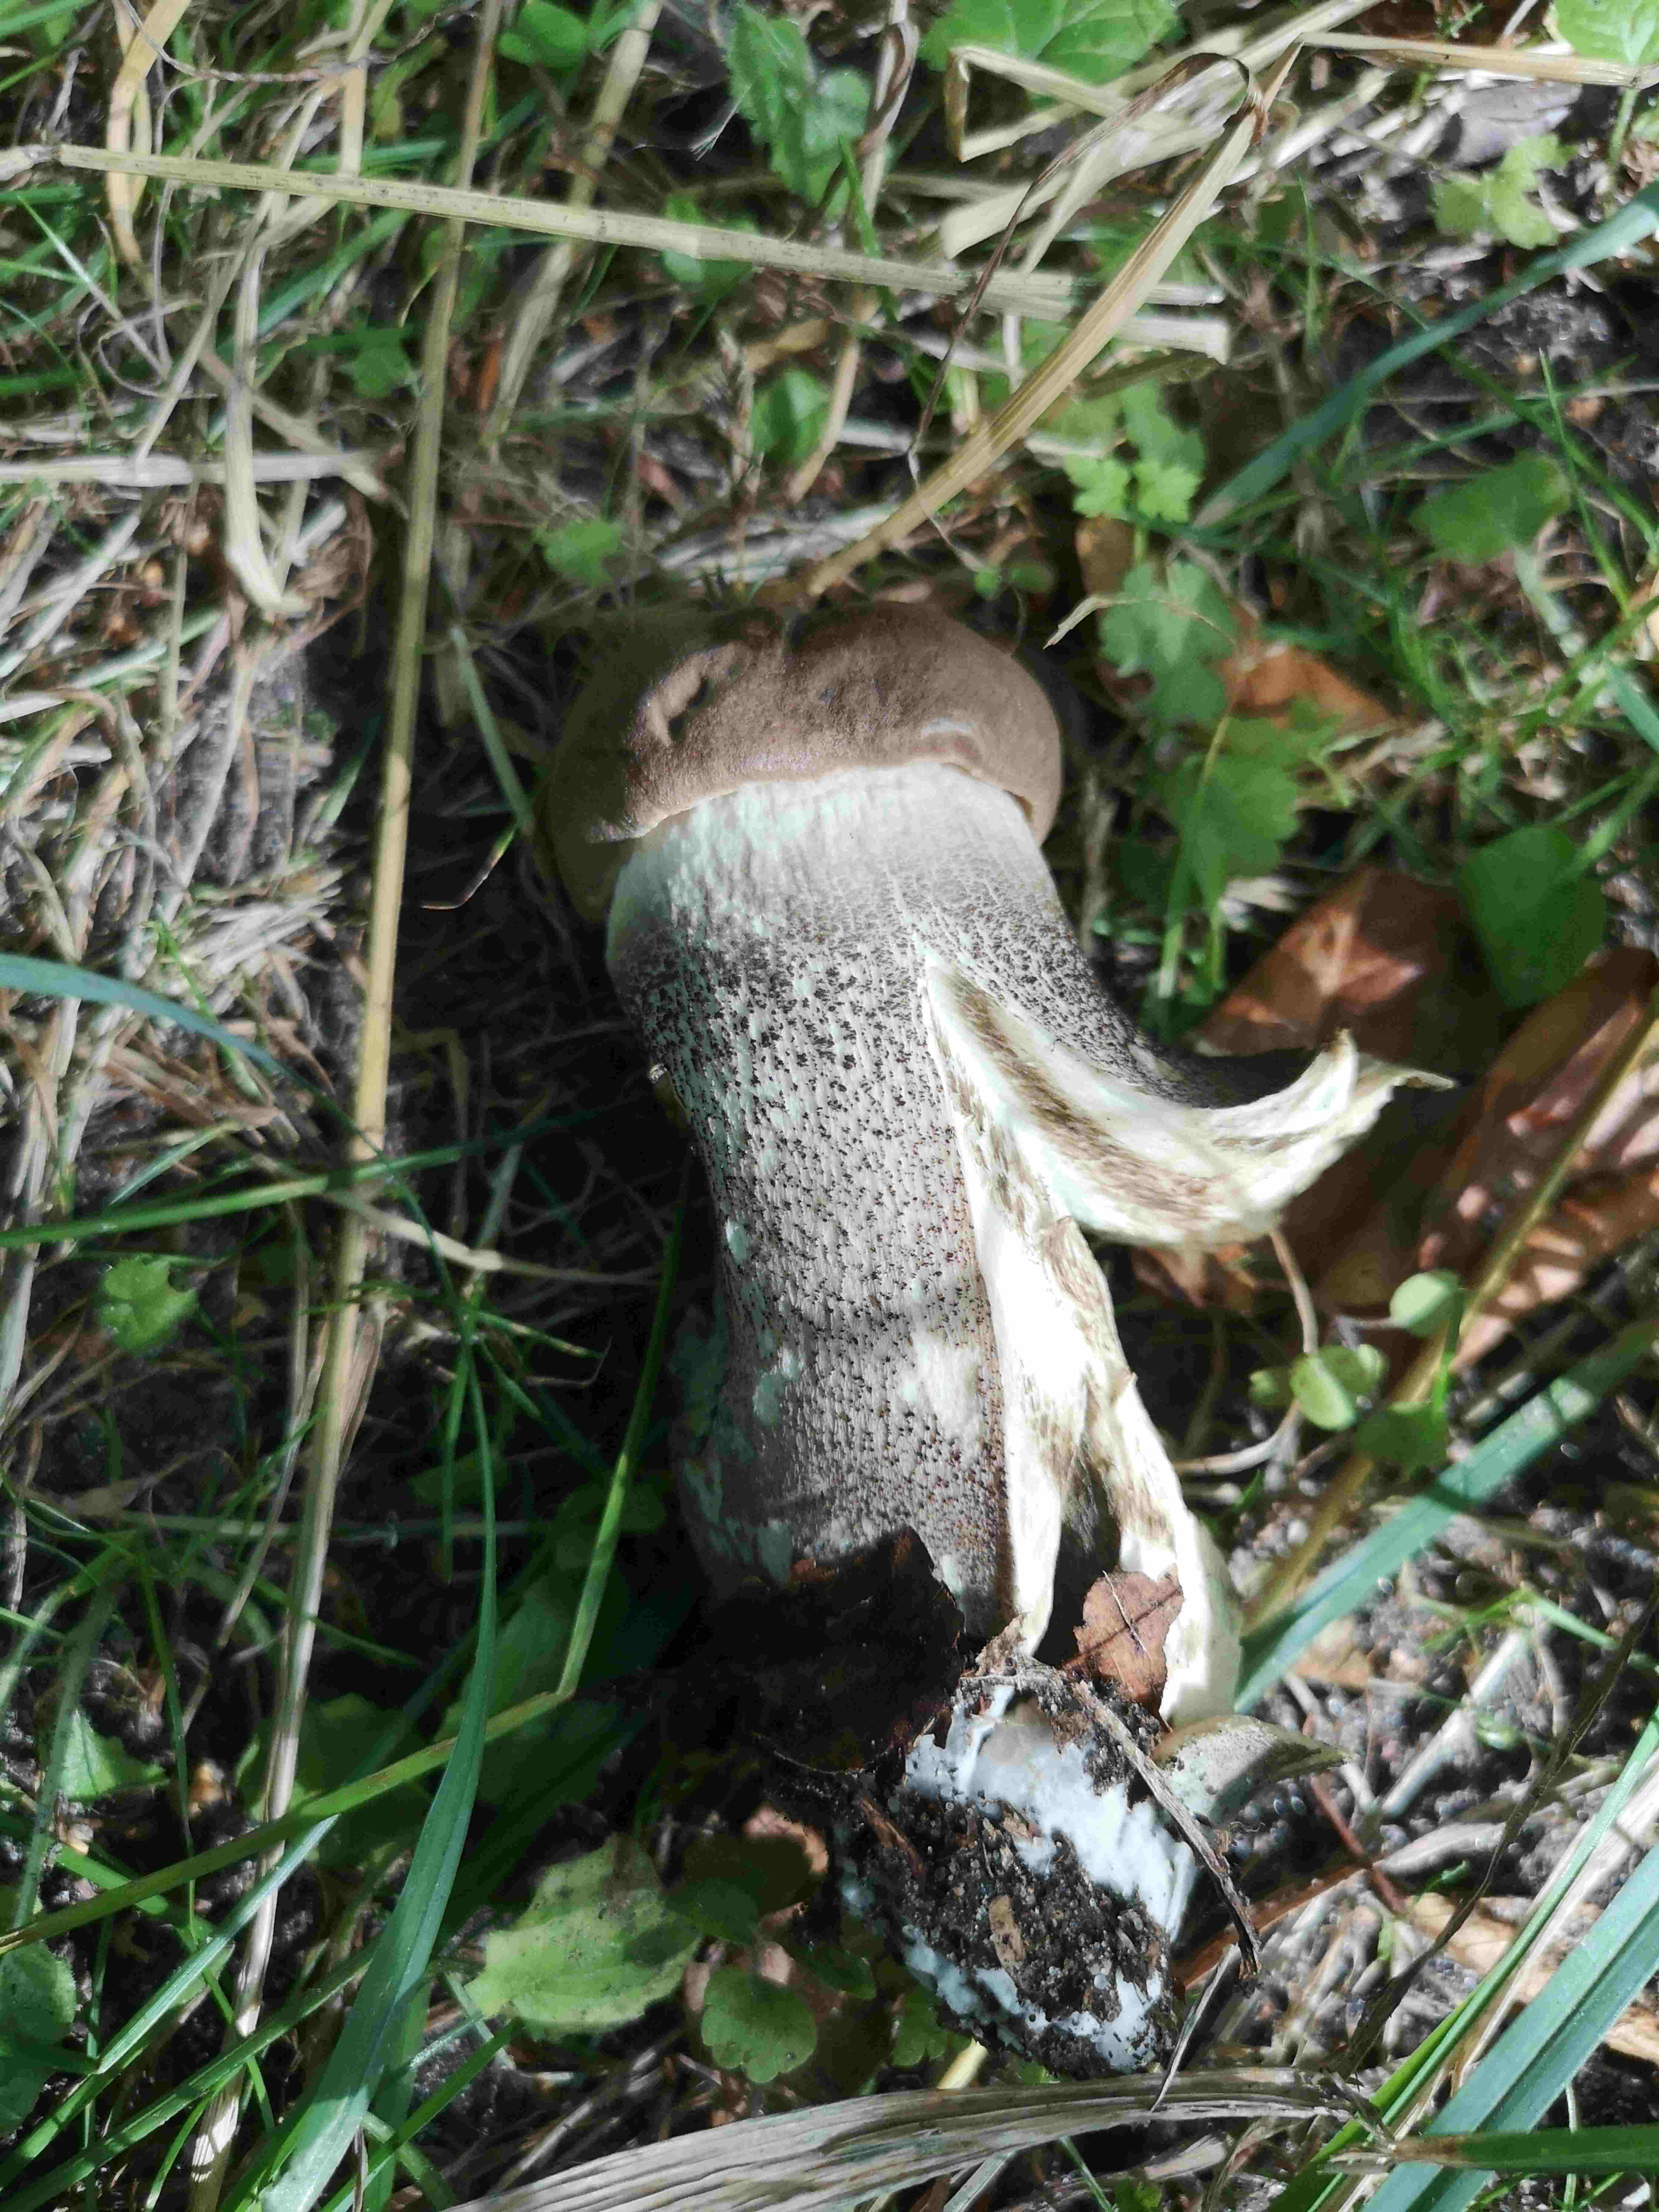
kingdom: Fungi
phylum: Basidiomycota
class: Agaricomycetes
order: Boletales
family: Boletaceae
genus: Leccinum
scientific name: Leccinum
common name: skælrørhat
